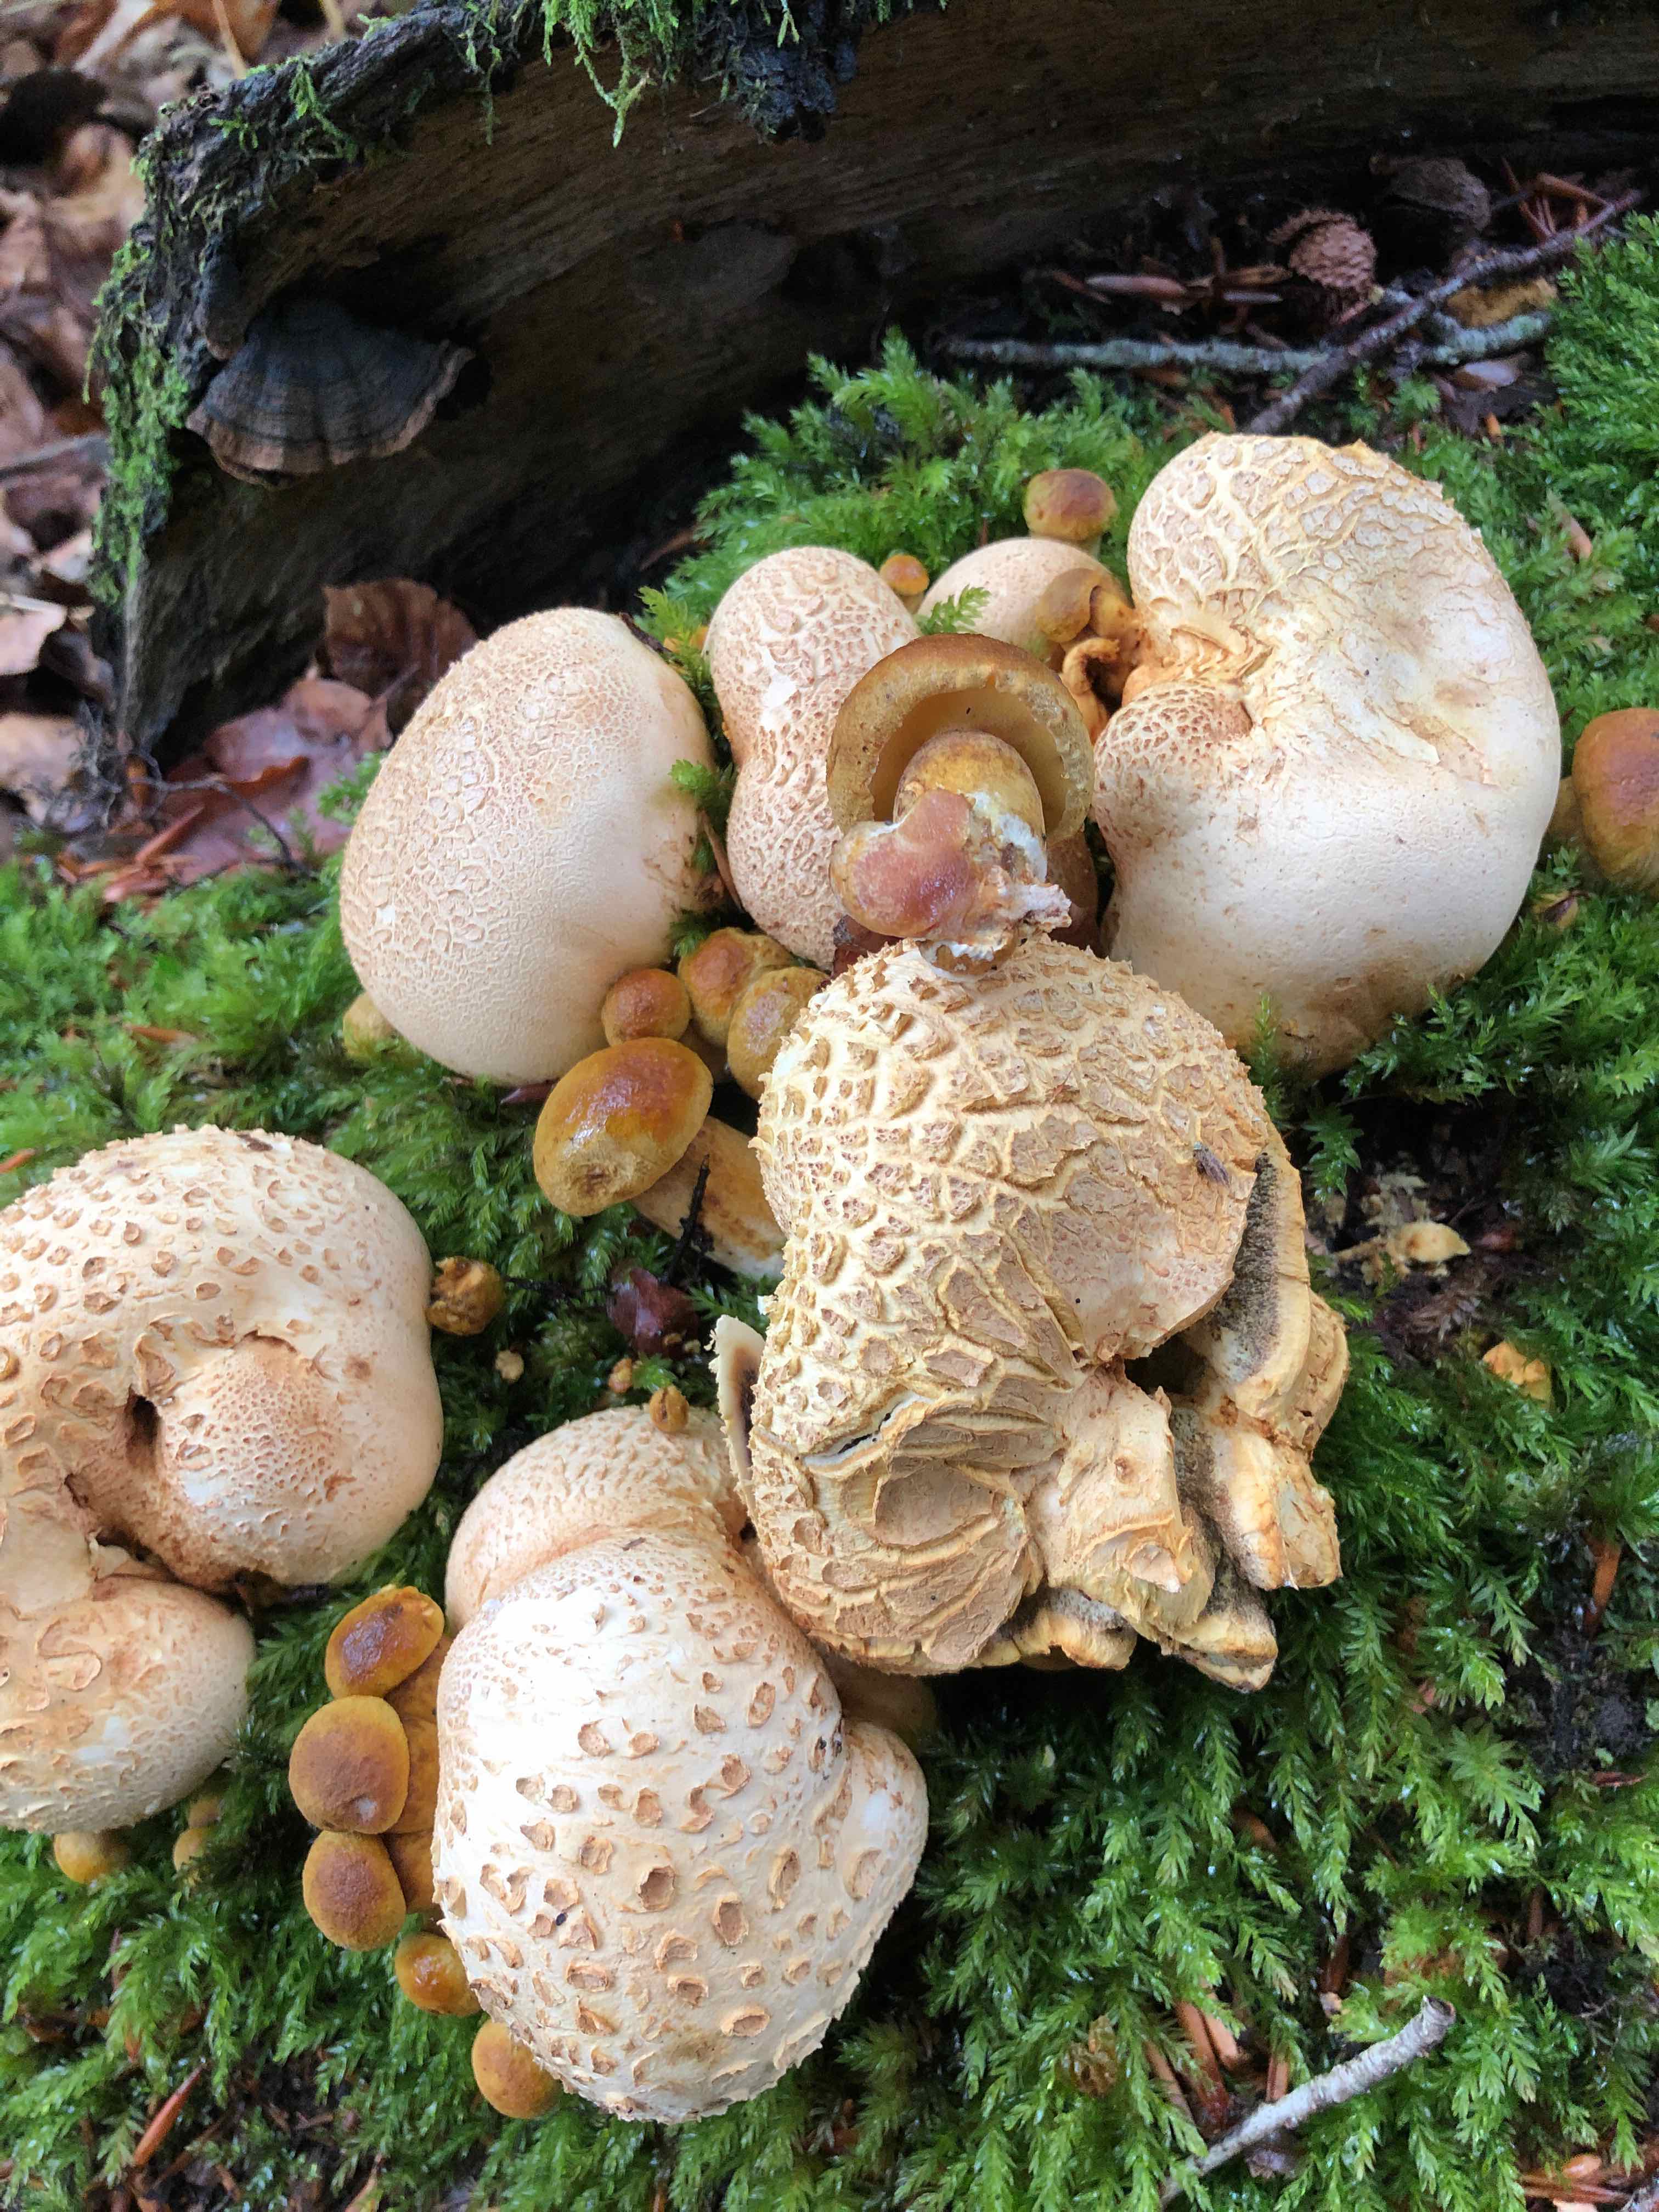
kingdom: Fungi
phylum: Basidiomycota
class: Agaricomycetes
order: Boletales
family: Boletaceae
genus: Pseudoboletus
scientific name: Pseudoboletus parasiticus
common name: snyltende rørhat
